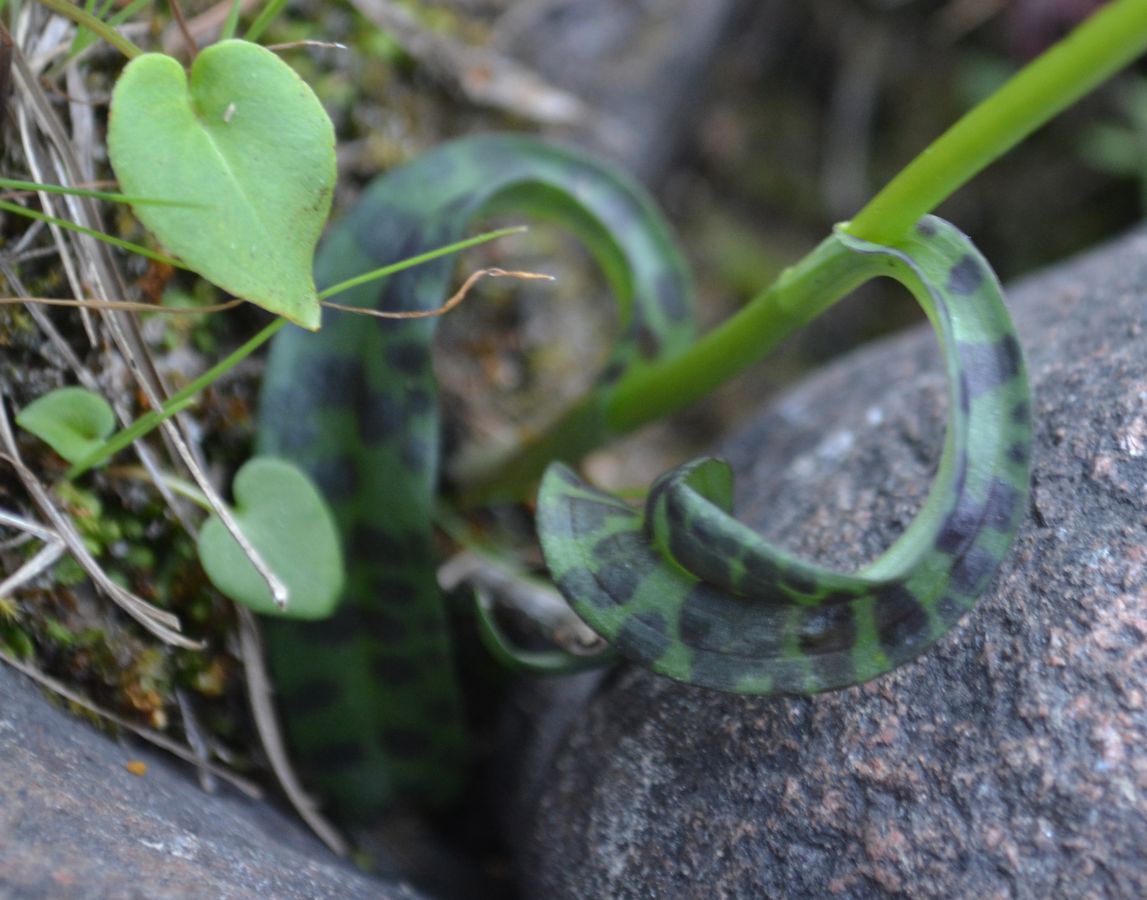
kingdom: Plantae
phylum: Tracheophyta
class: Liliopsida
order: Asparagales
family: Orchidaceae
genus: Dactylorhiza
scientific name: Dactylorhiza maculata
